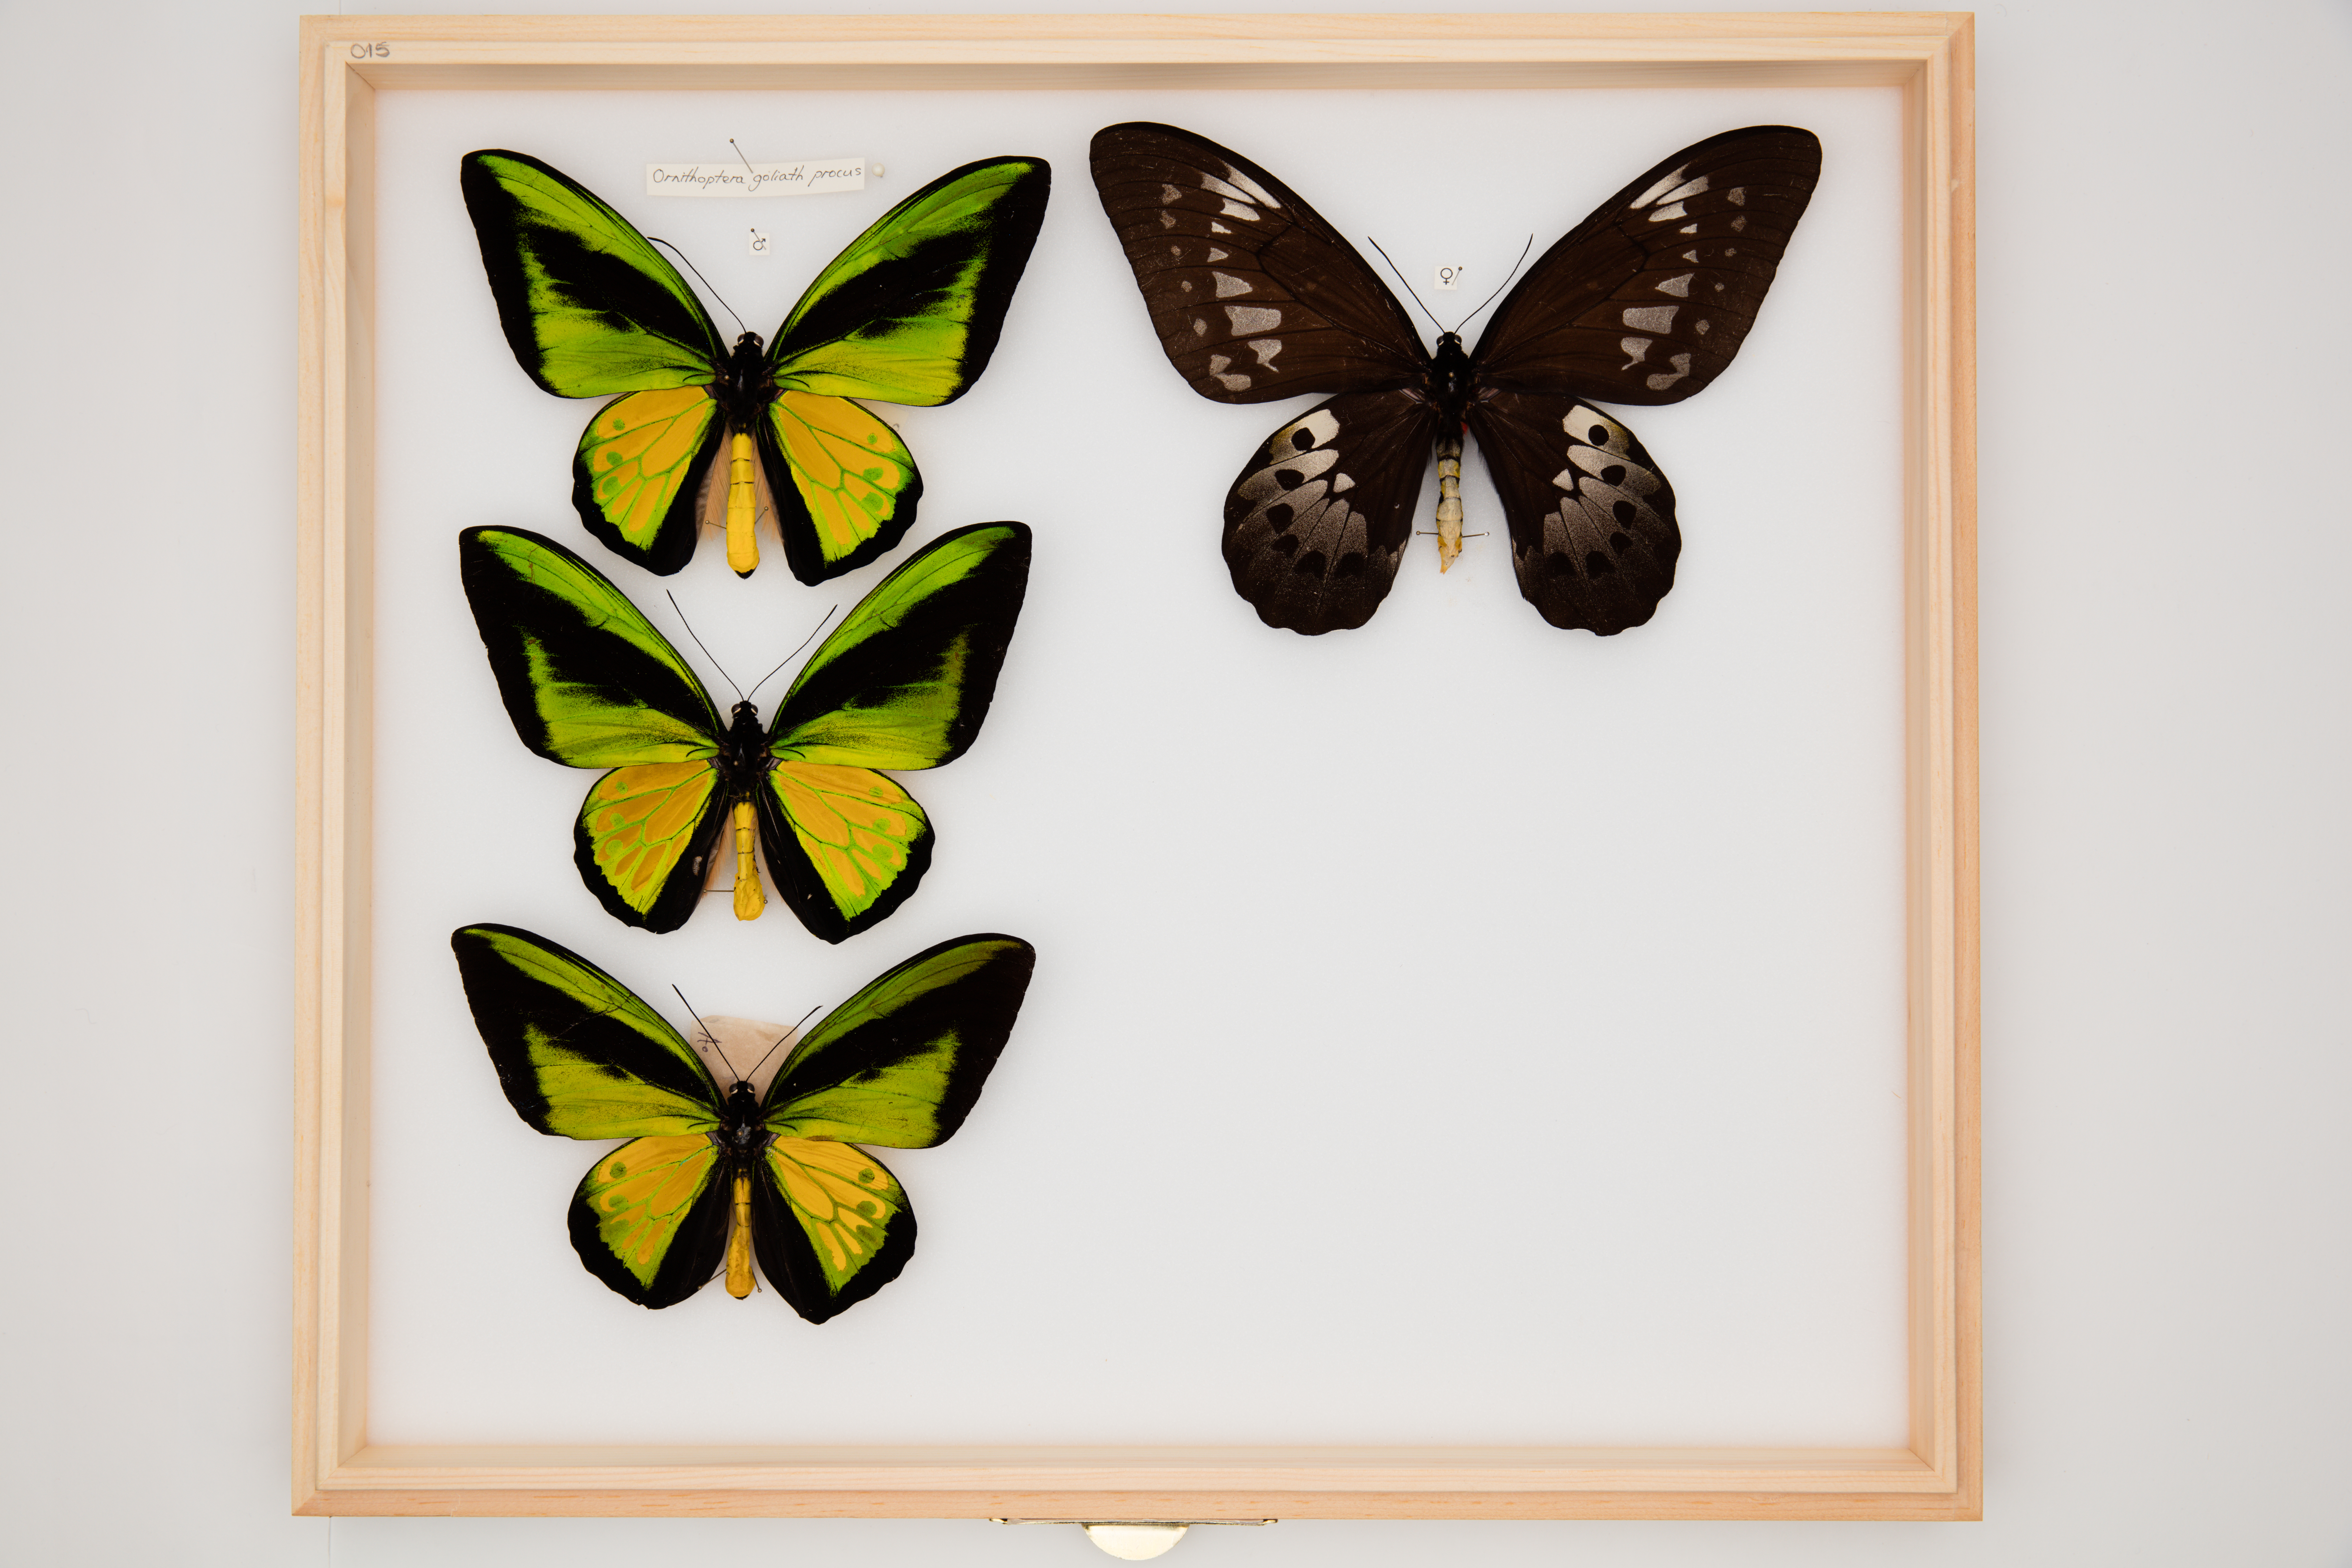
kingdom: Animalia
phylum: Arthropoda
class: Insecta
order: Lepidoptera
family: Papilionidae
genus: Ornithoptera
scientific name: Ornithoptera goliath
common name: Goliath birdwing
